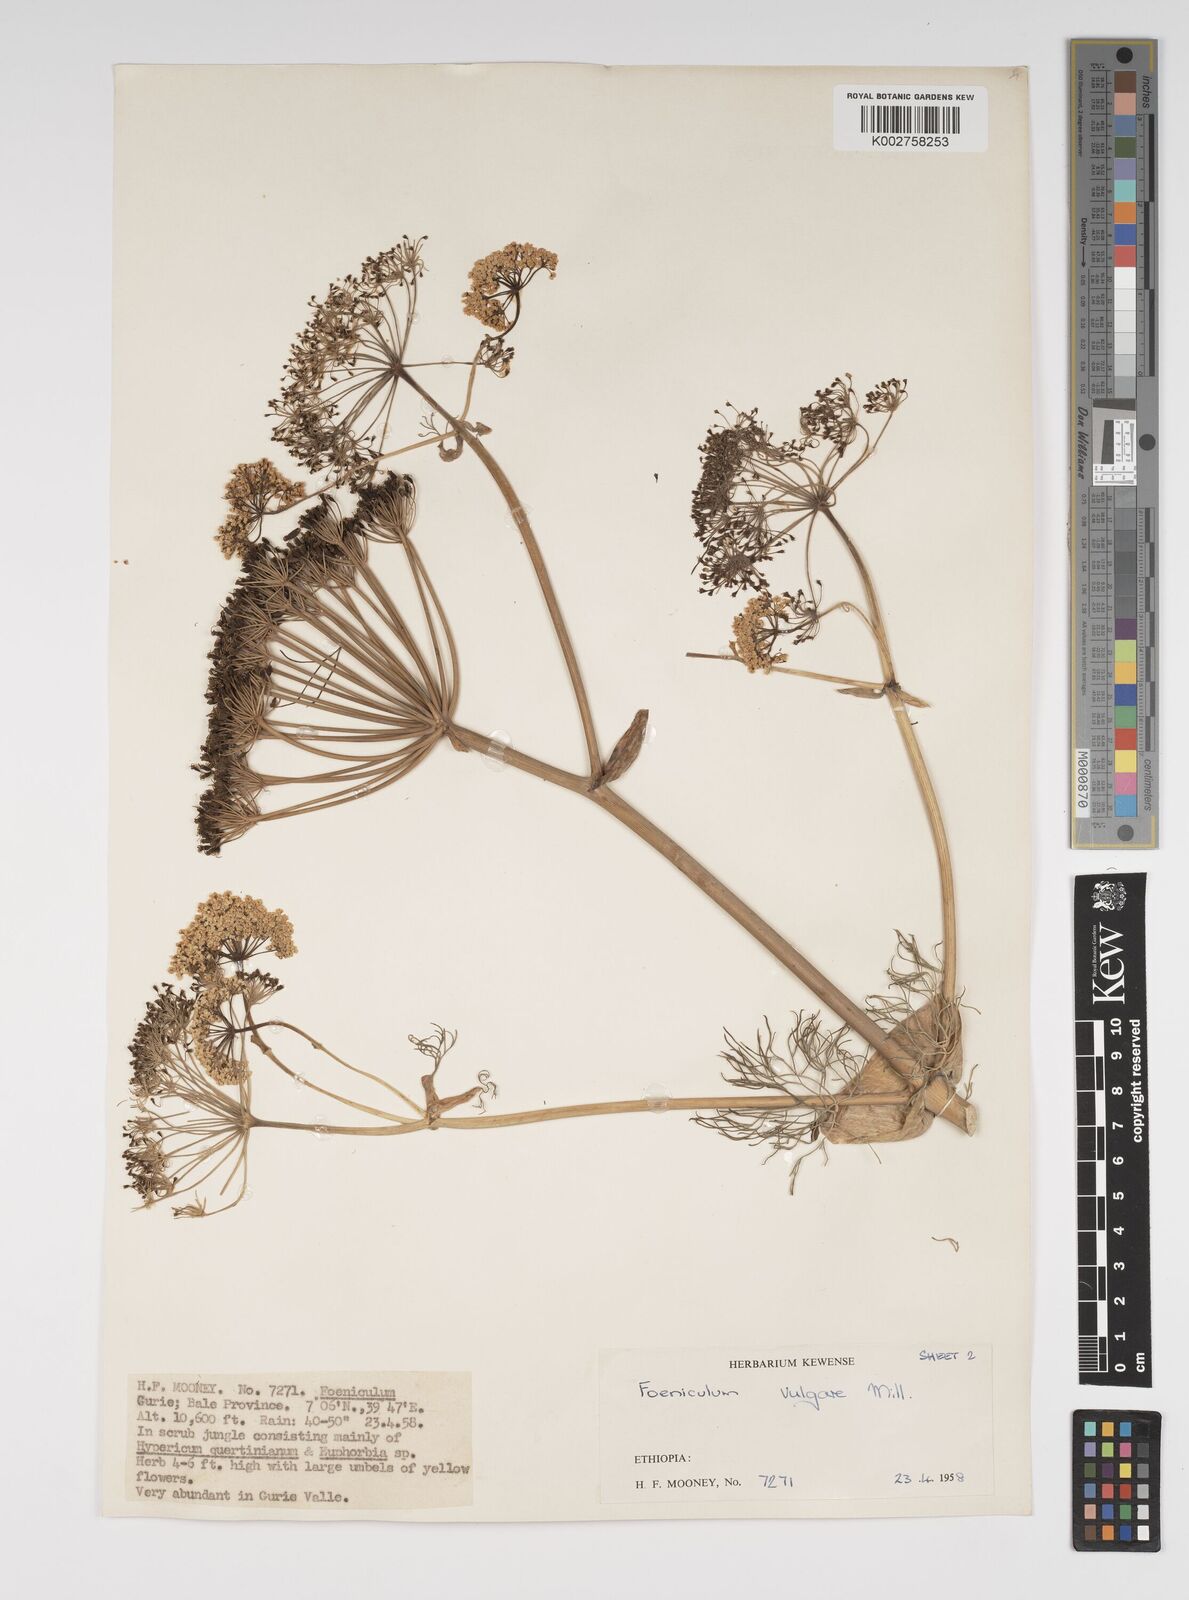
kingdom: Plantae
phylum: Tracheophyta
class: Magnoliopsida
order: Apiales
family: Apiaceae
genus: Foeniculum
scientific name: Foeniculum vulgare
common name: Fennel
